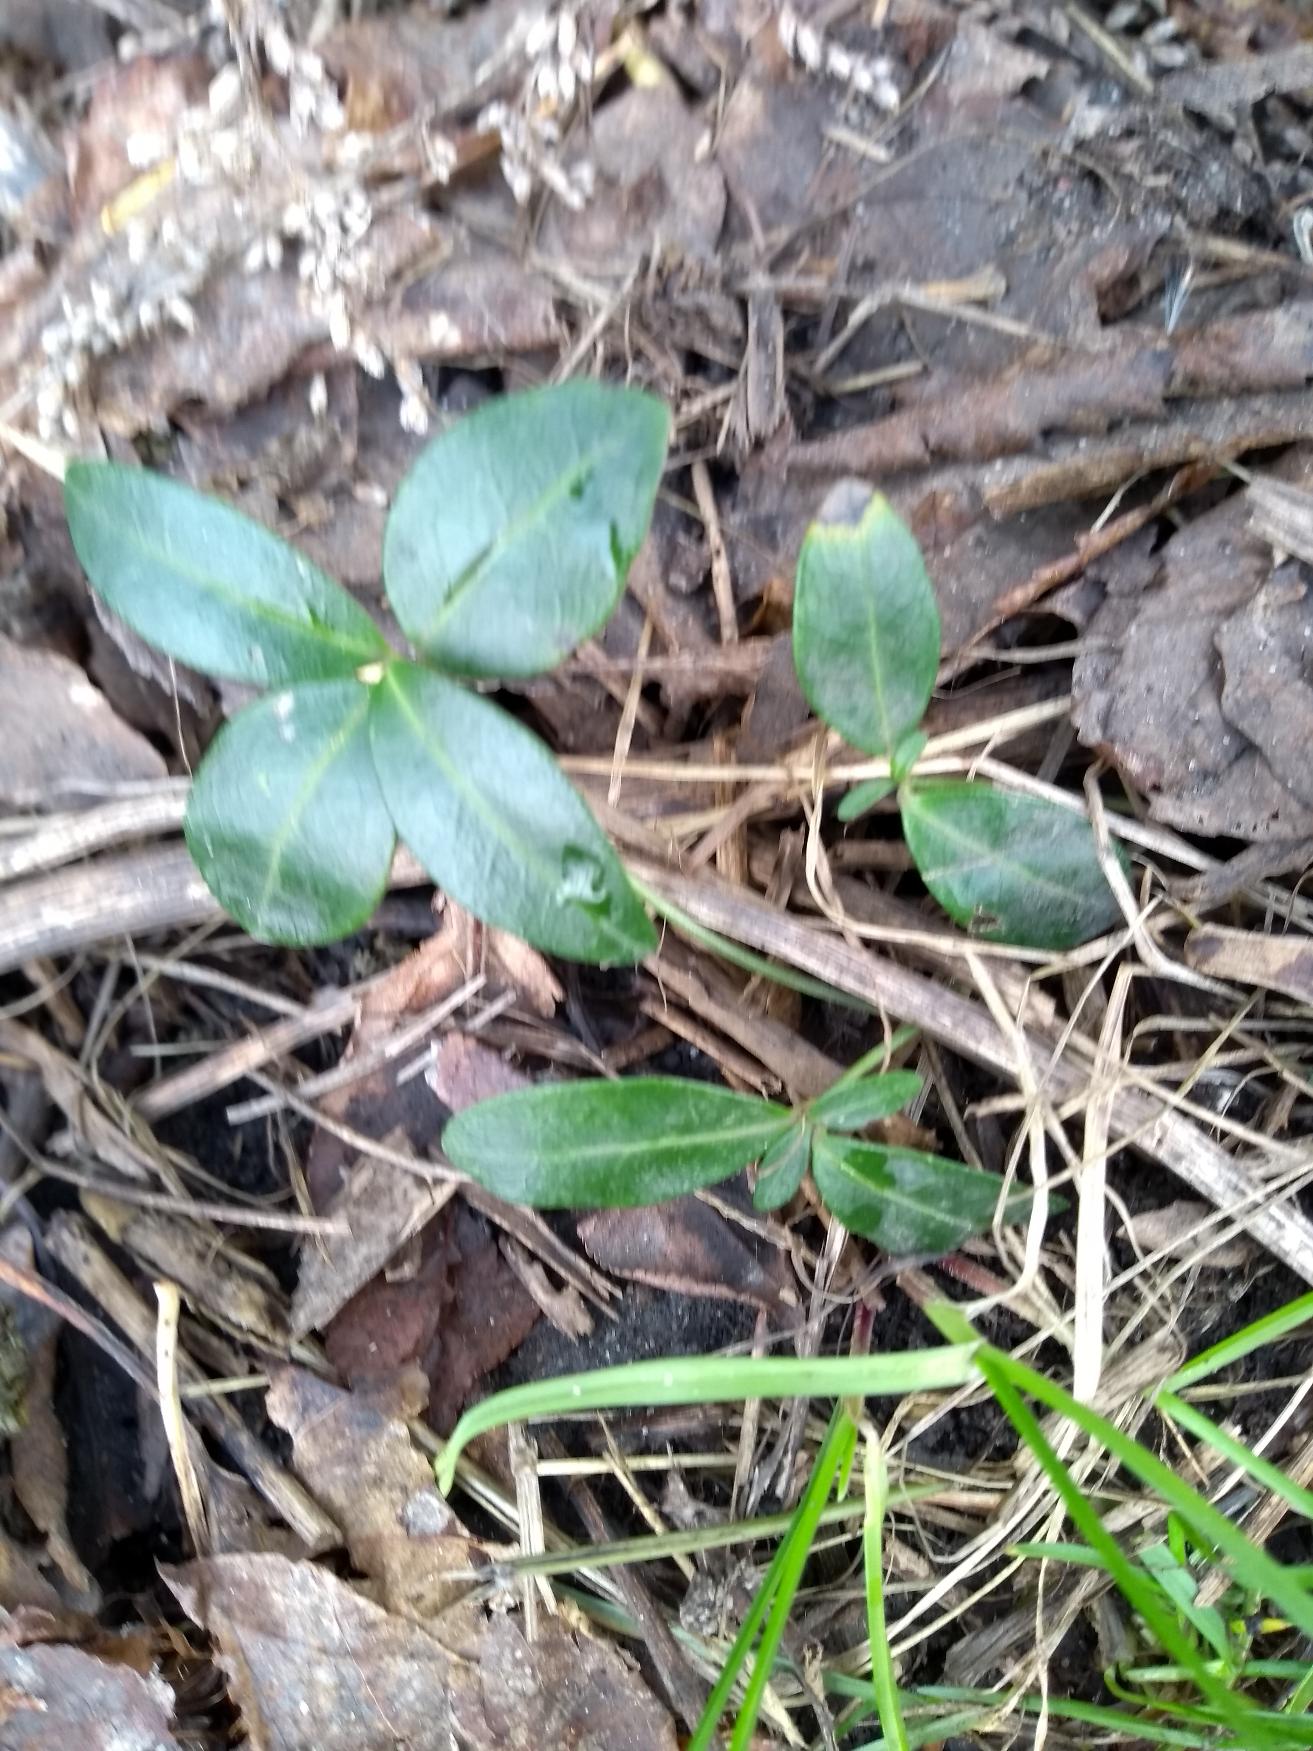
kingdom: Plantae
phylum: Tracheophyta
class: Magnoliopsida
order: Gentianales
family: Apocynaceae
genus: Vinca
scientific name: Vinca minor
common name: Liden singrøn
